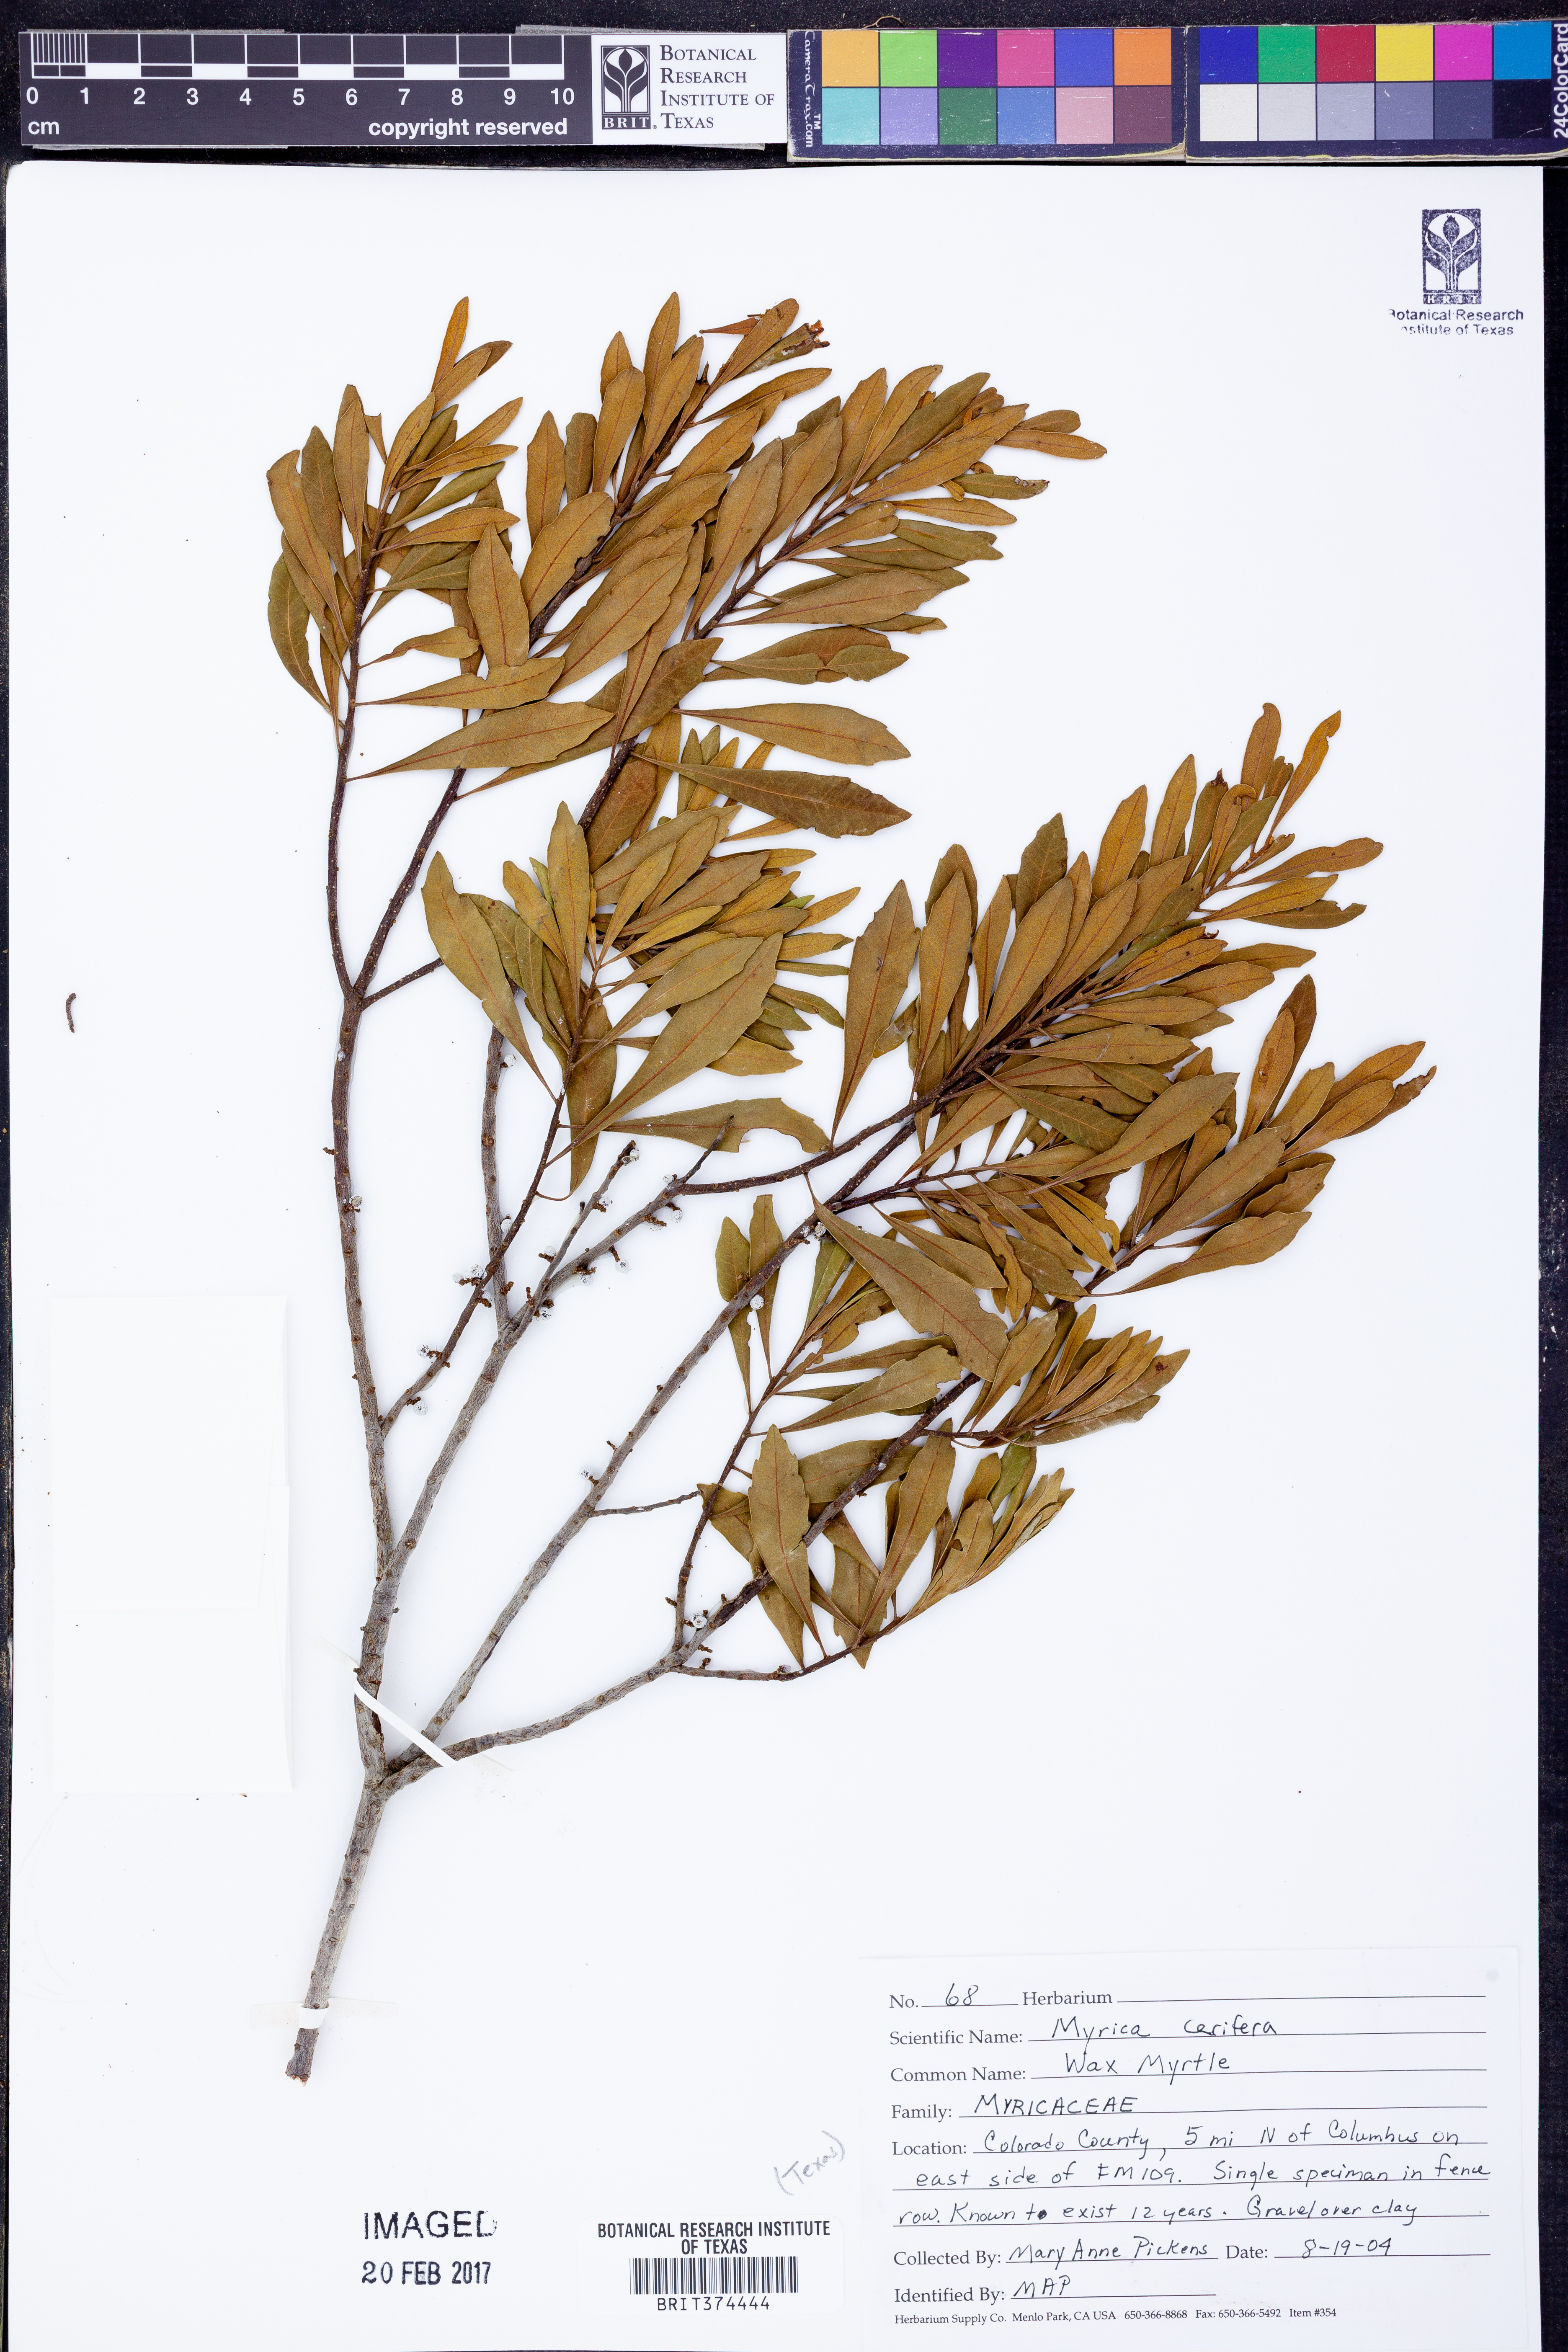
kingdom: Plantae
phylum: Tracheophyta
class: Magnoliopsida
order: Fagales
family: Myricaceae
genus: Morella
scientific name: Morella cerifera
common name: Wax myrtle
